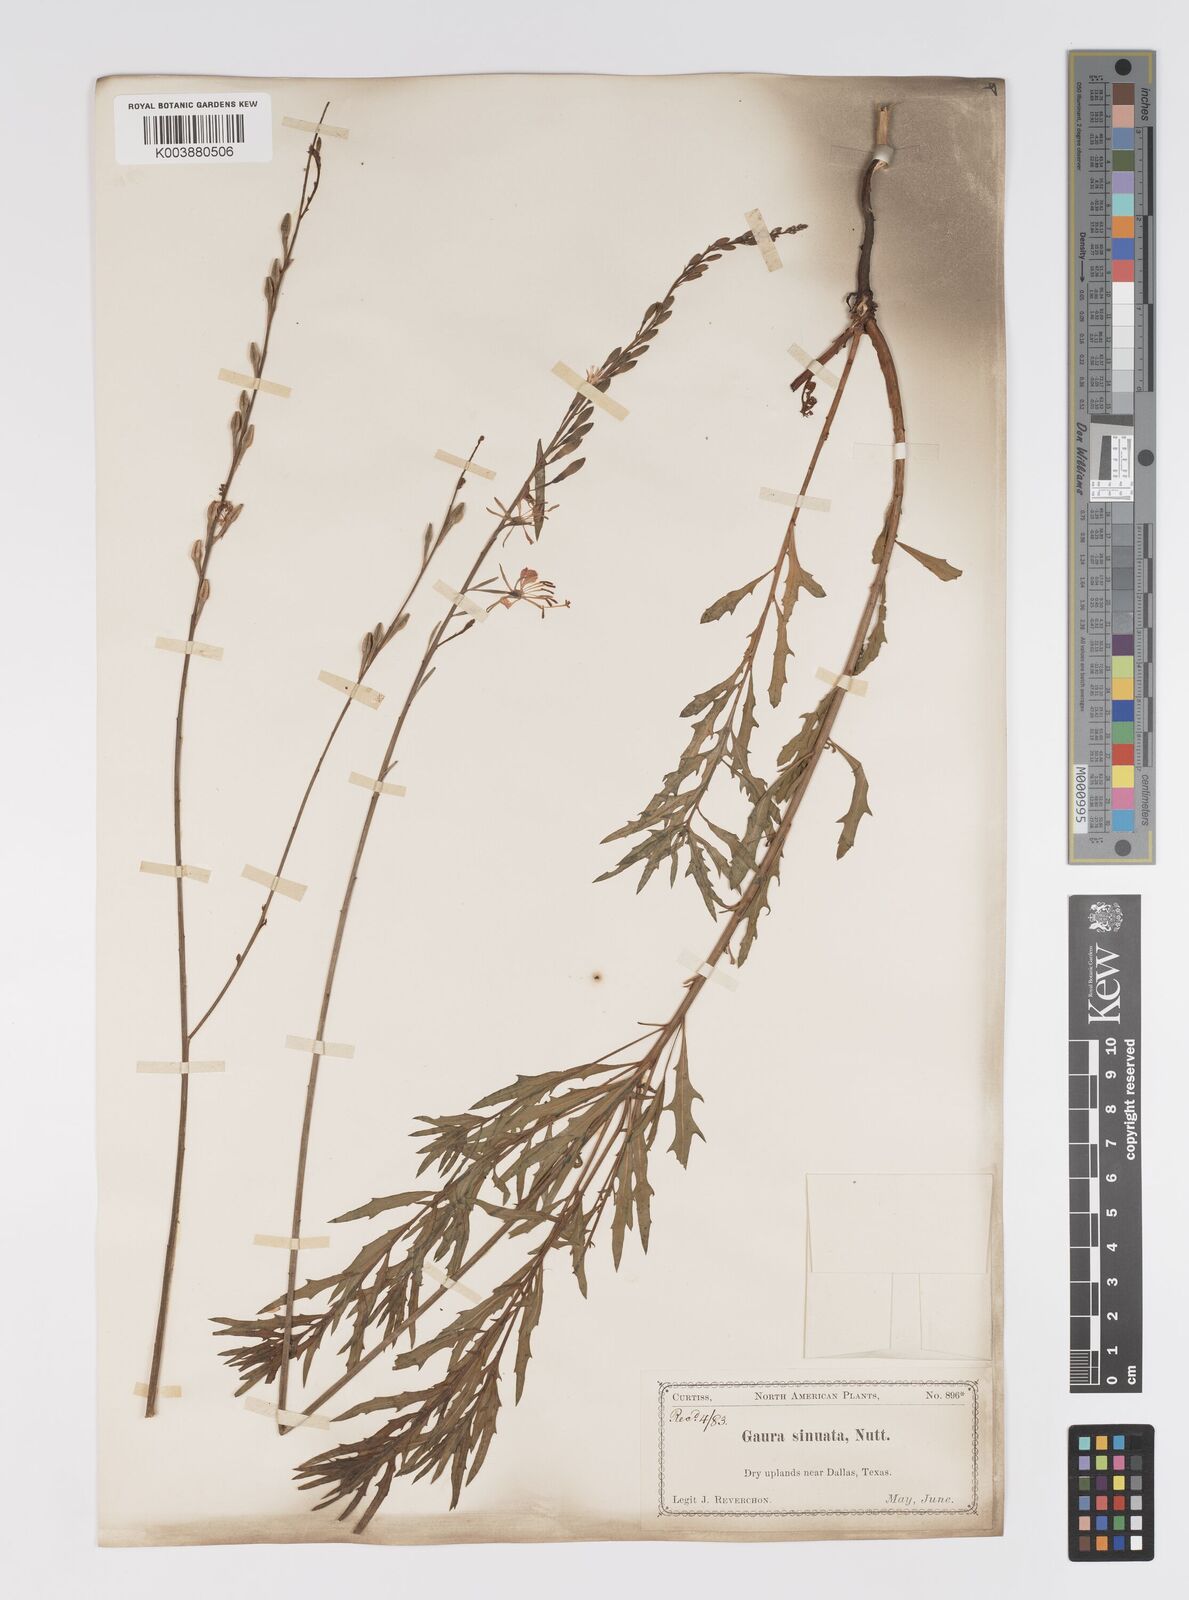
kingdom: Plantae
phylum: Tracheophyta
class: Magnoliopsida
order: Myrtales
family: Onagraceae
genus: Oenothera
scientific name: Oenothera sinuosa
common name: Wavyleaf beeblossom
